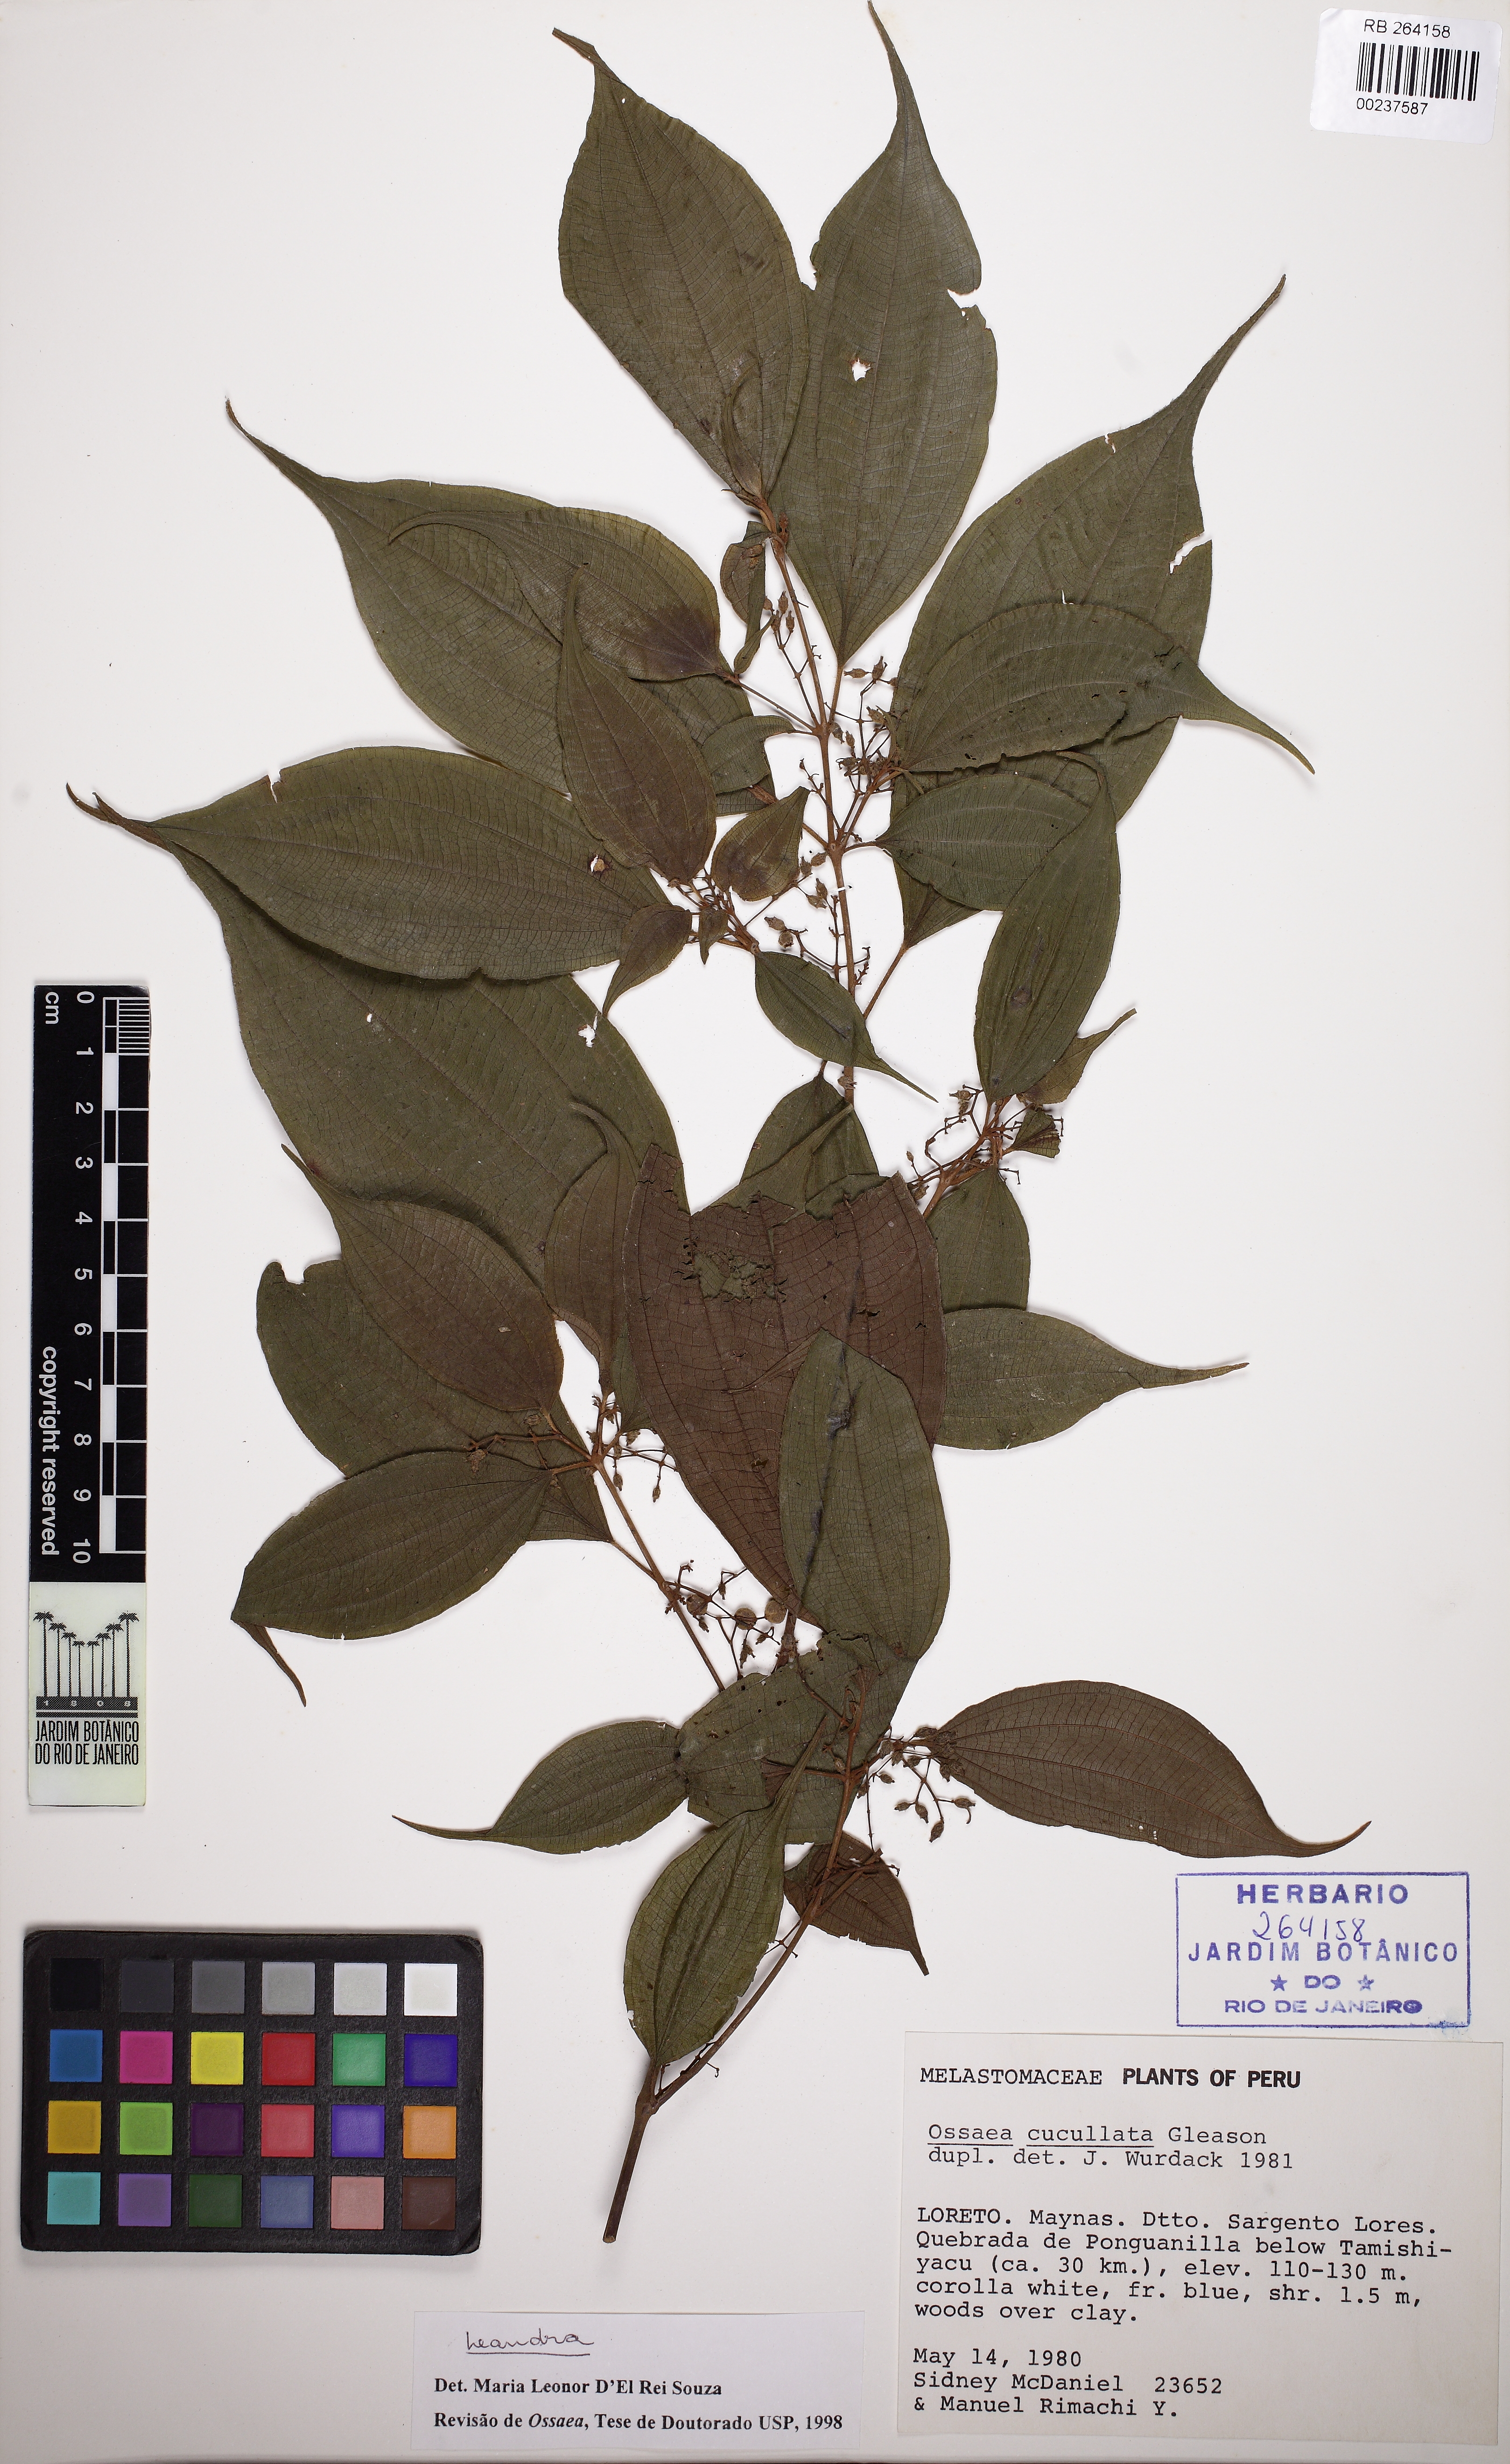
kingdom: Plantae
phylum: Tracheophyta
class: Magnoliopsida
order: Myrtales
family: Melastomataceae
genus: Miconia
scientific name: Miconia
